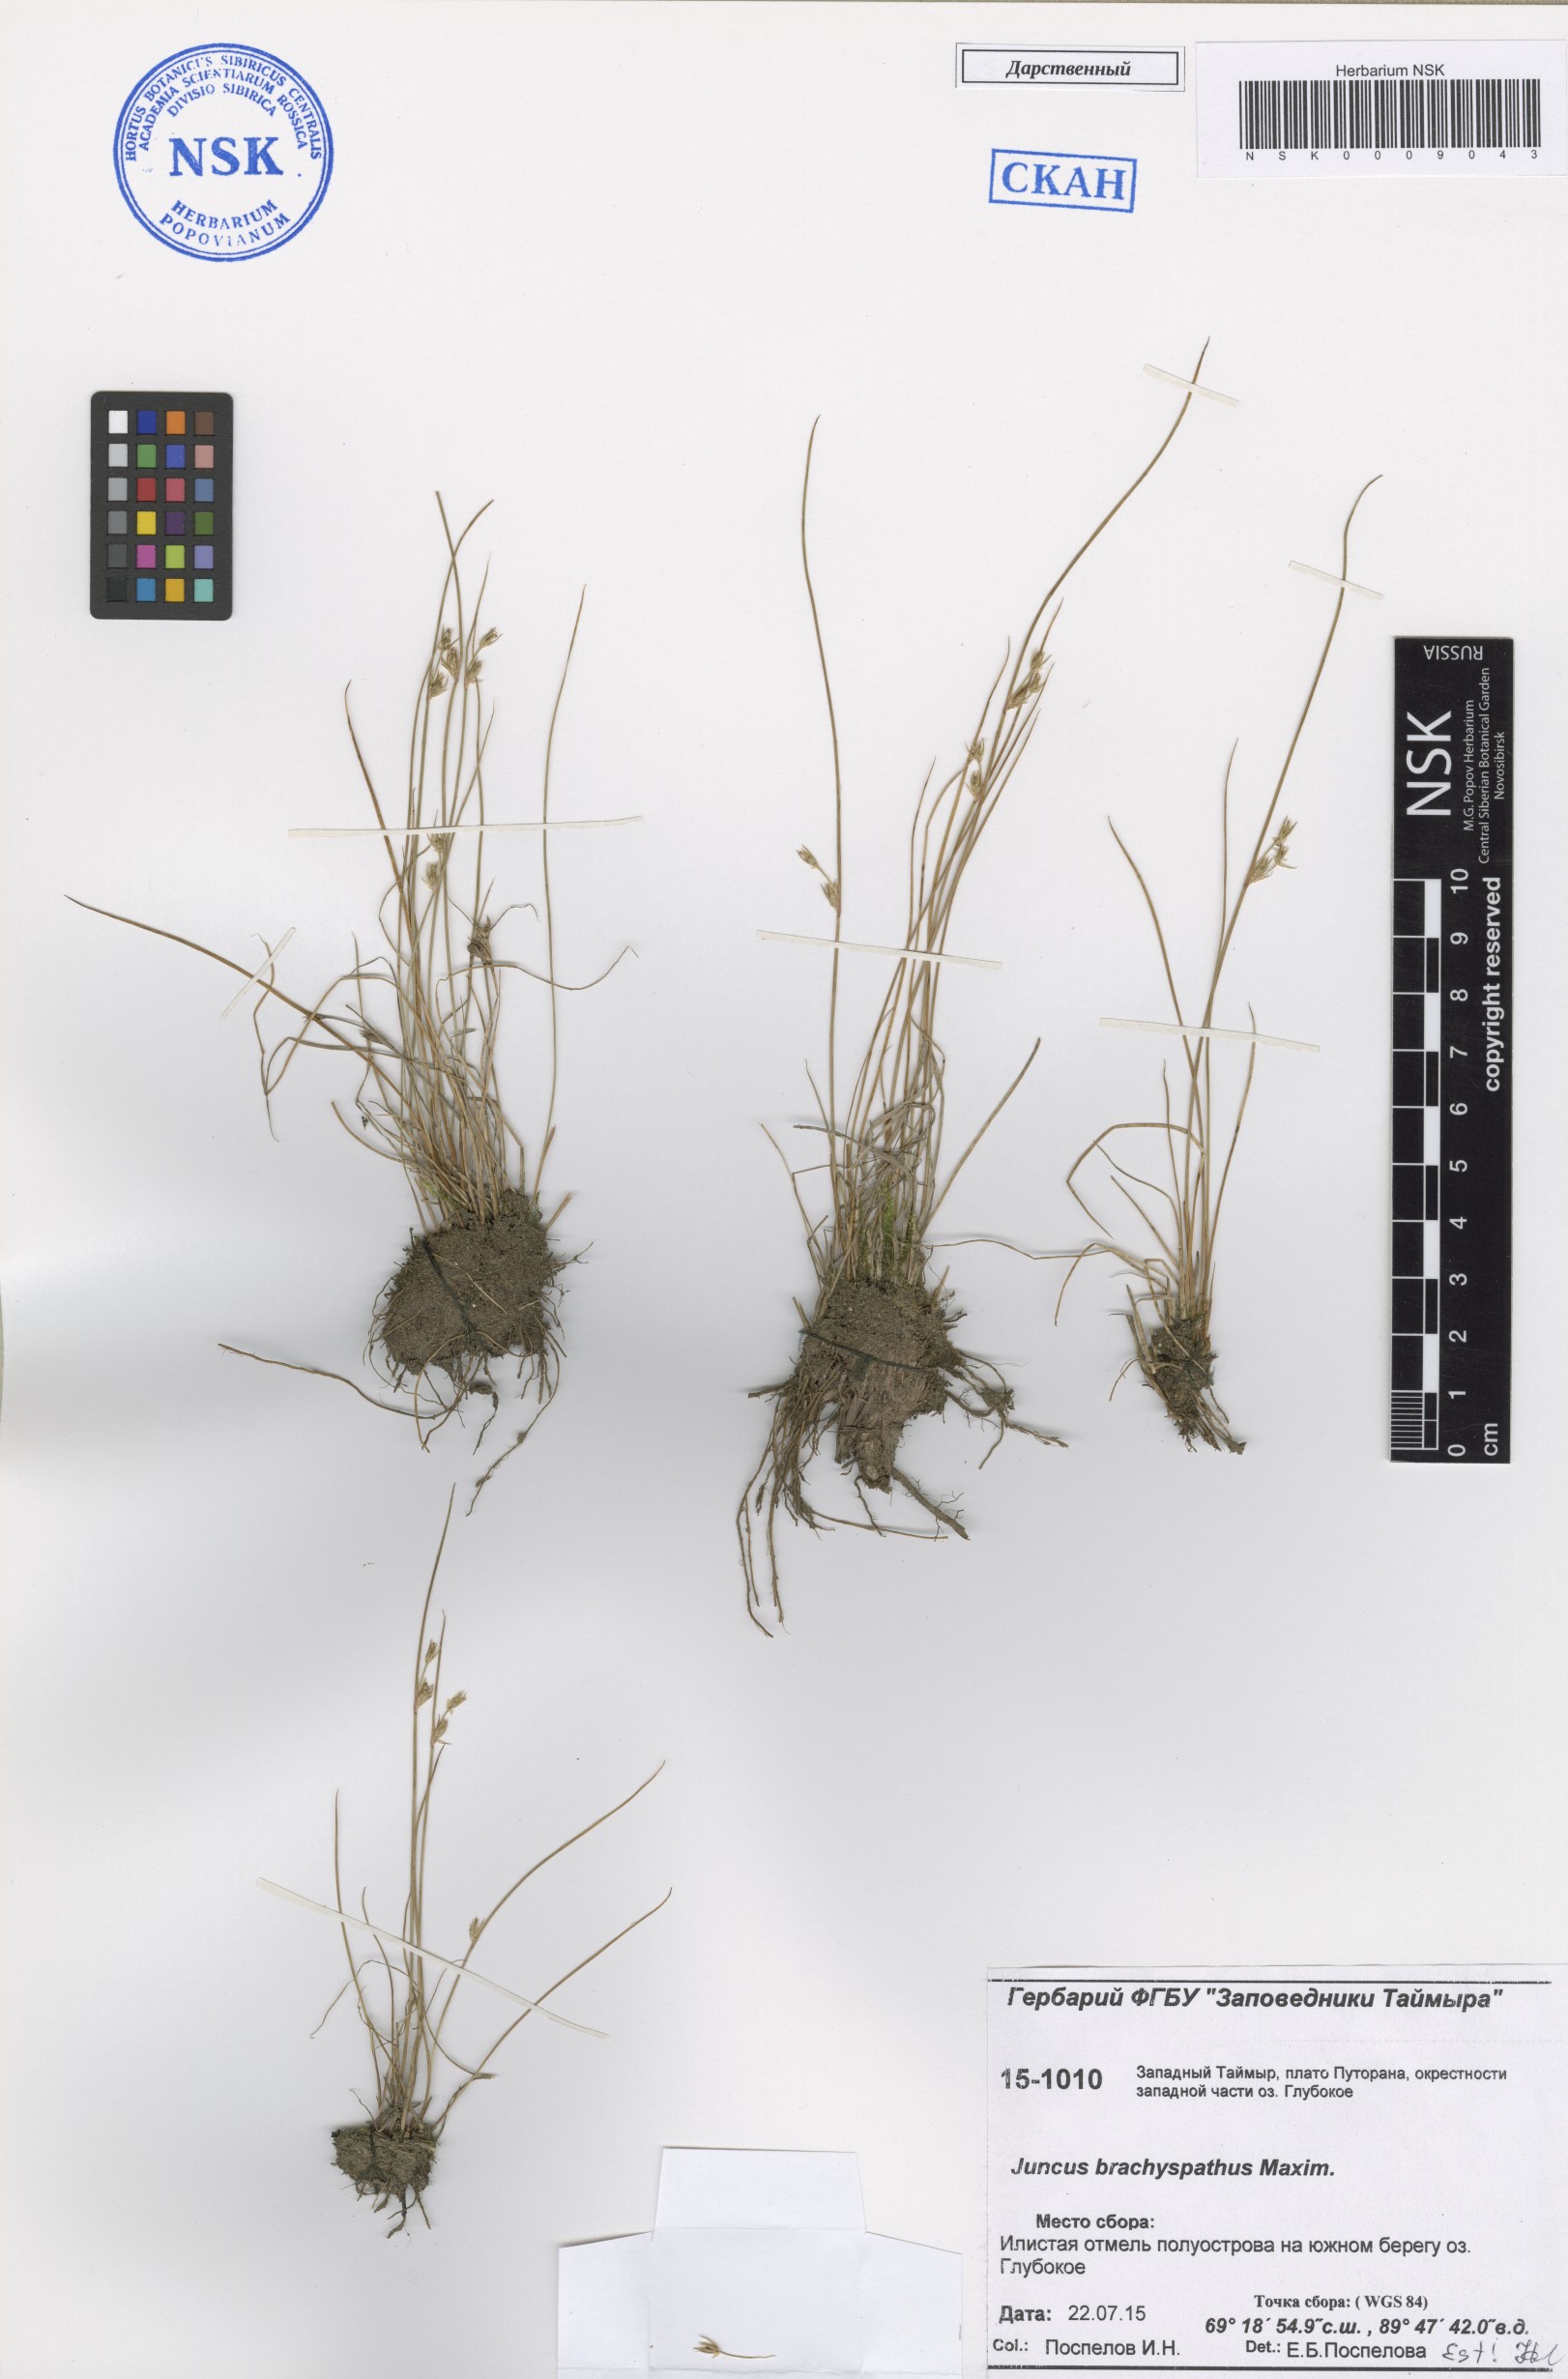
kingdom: Plantae
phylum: Tracheophyta
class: Liliopsida
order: Poales
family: Juncaceae
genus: Juncus
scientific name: Juncus brachyspathus
